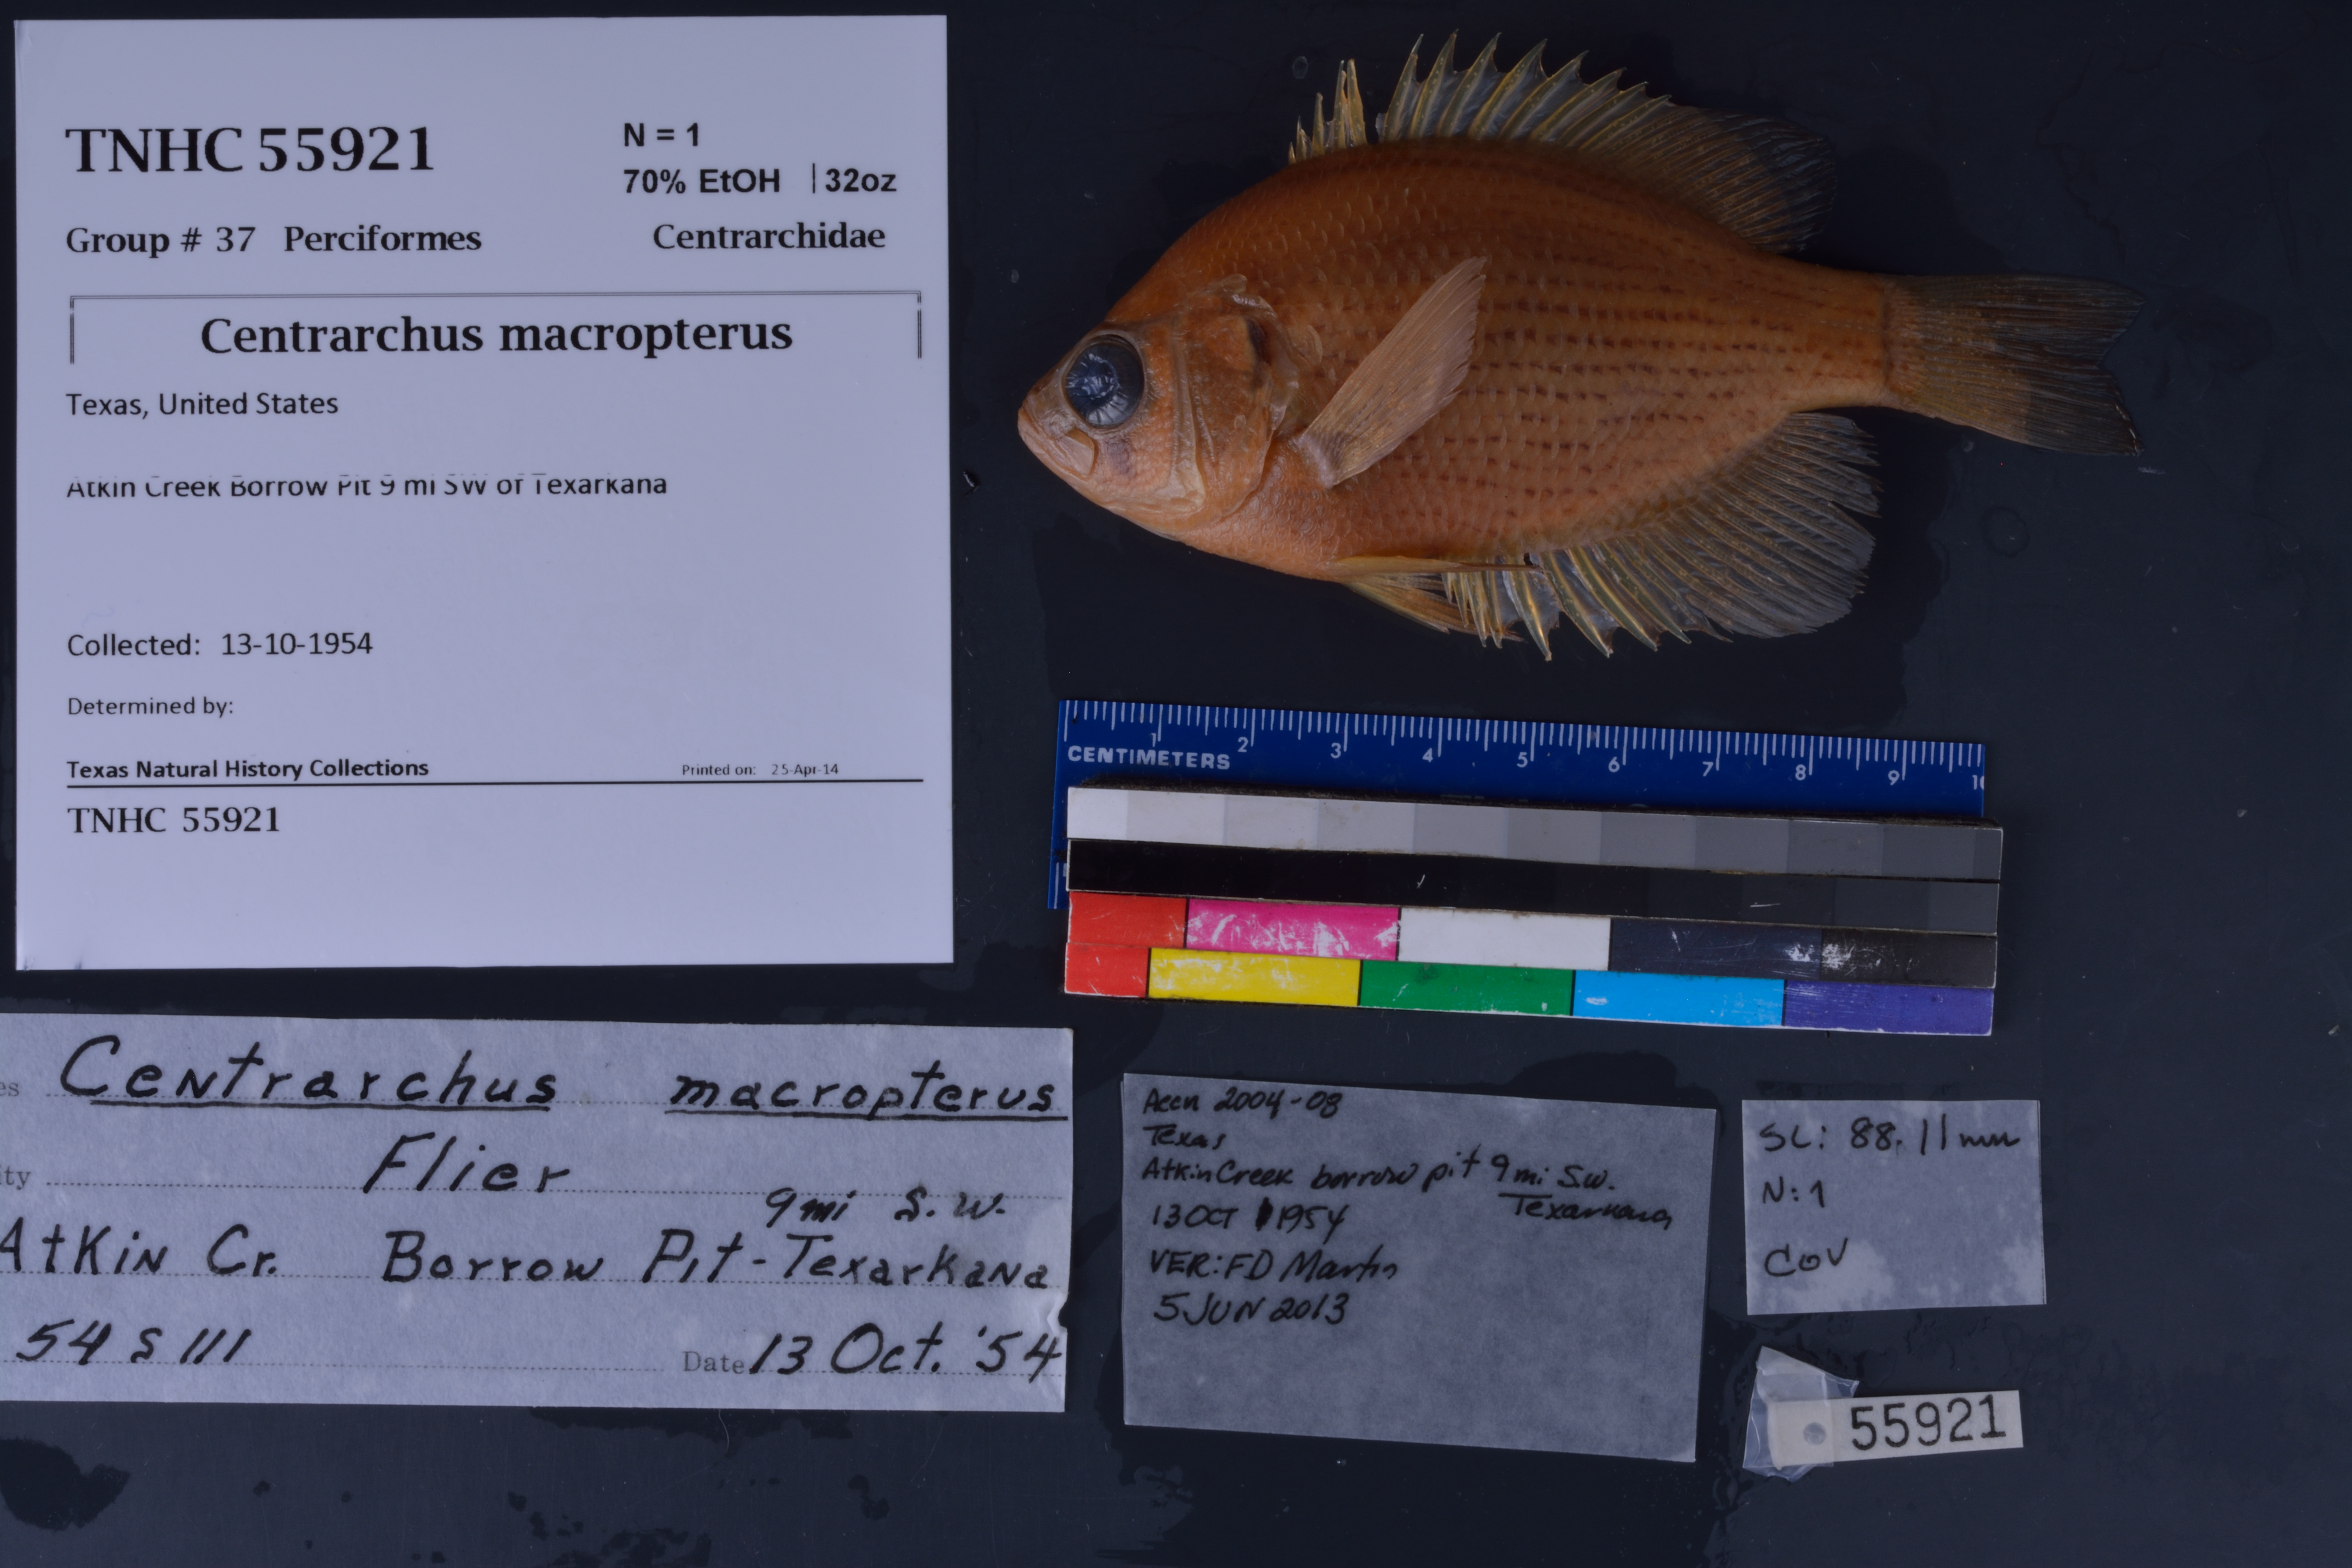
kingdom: Animalia
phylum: Chordata
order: Perciformes
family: Centrarchidae
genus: Centrarchus
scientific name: Centrarchus macropterus
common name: Flier
